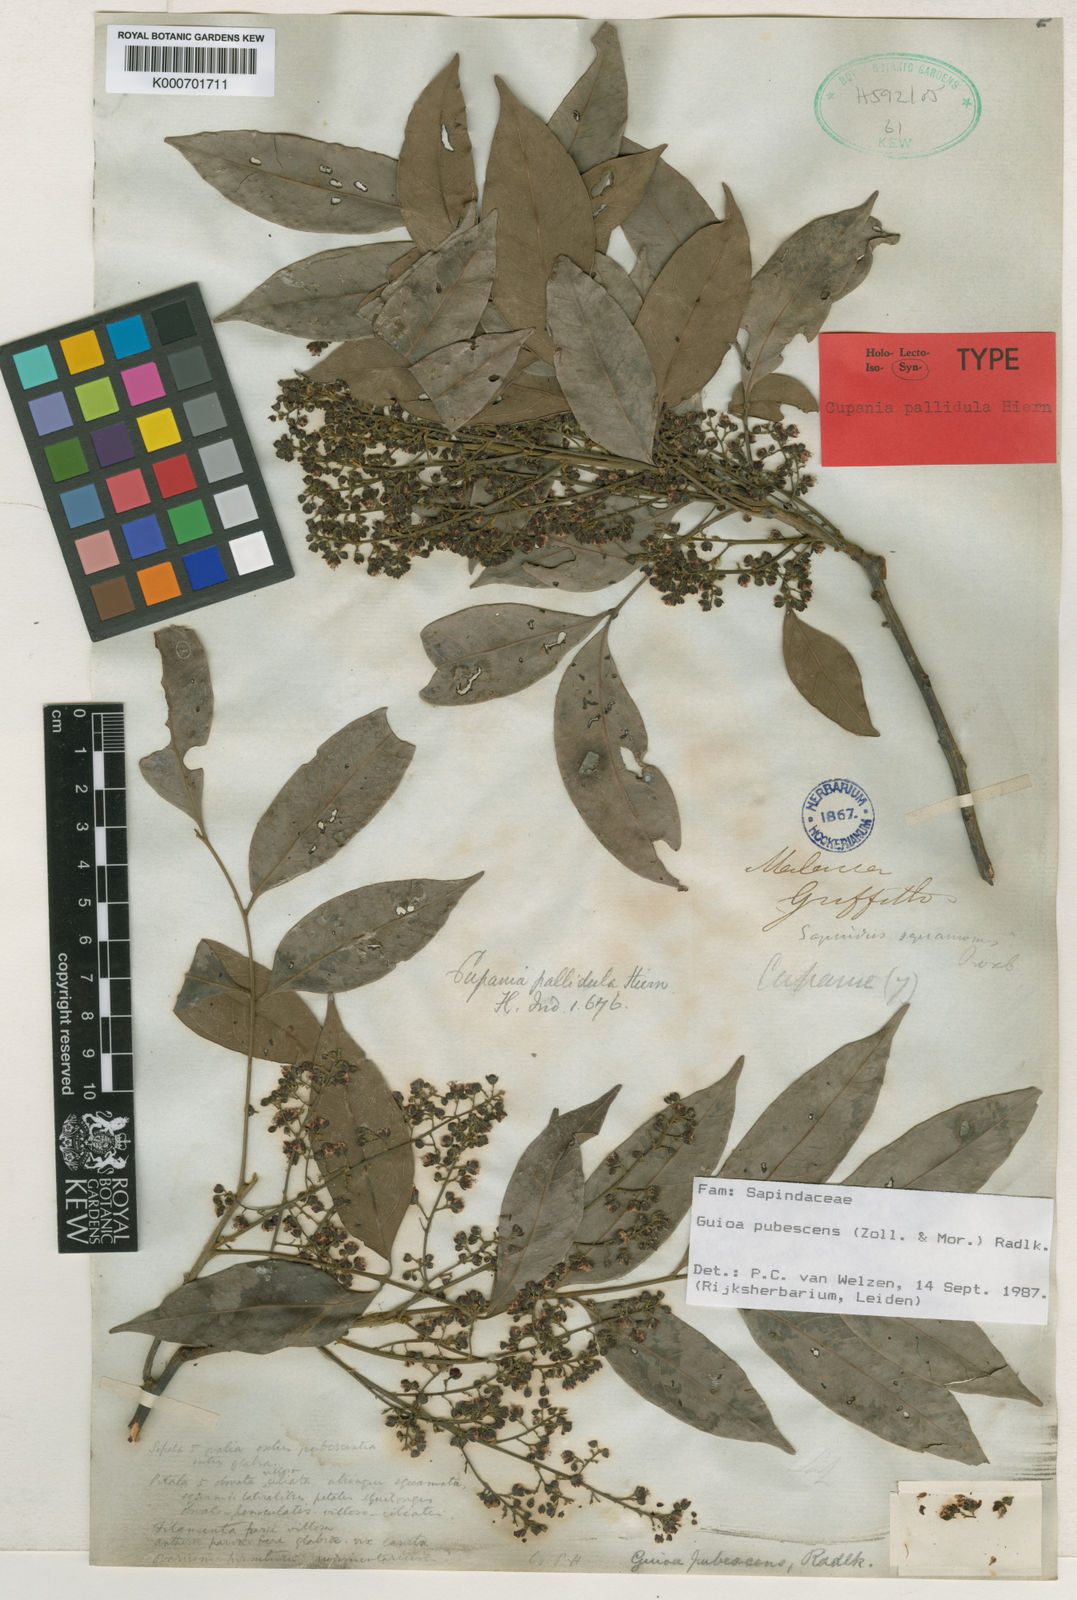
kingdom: Plantae
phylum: Tracheophyta
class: Magnoliopsida
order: Sapindales
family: Sapindaceae
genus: Guioa
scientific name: Guioa pubescens
